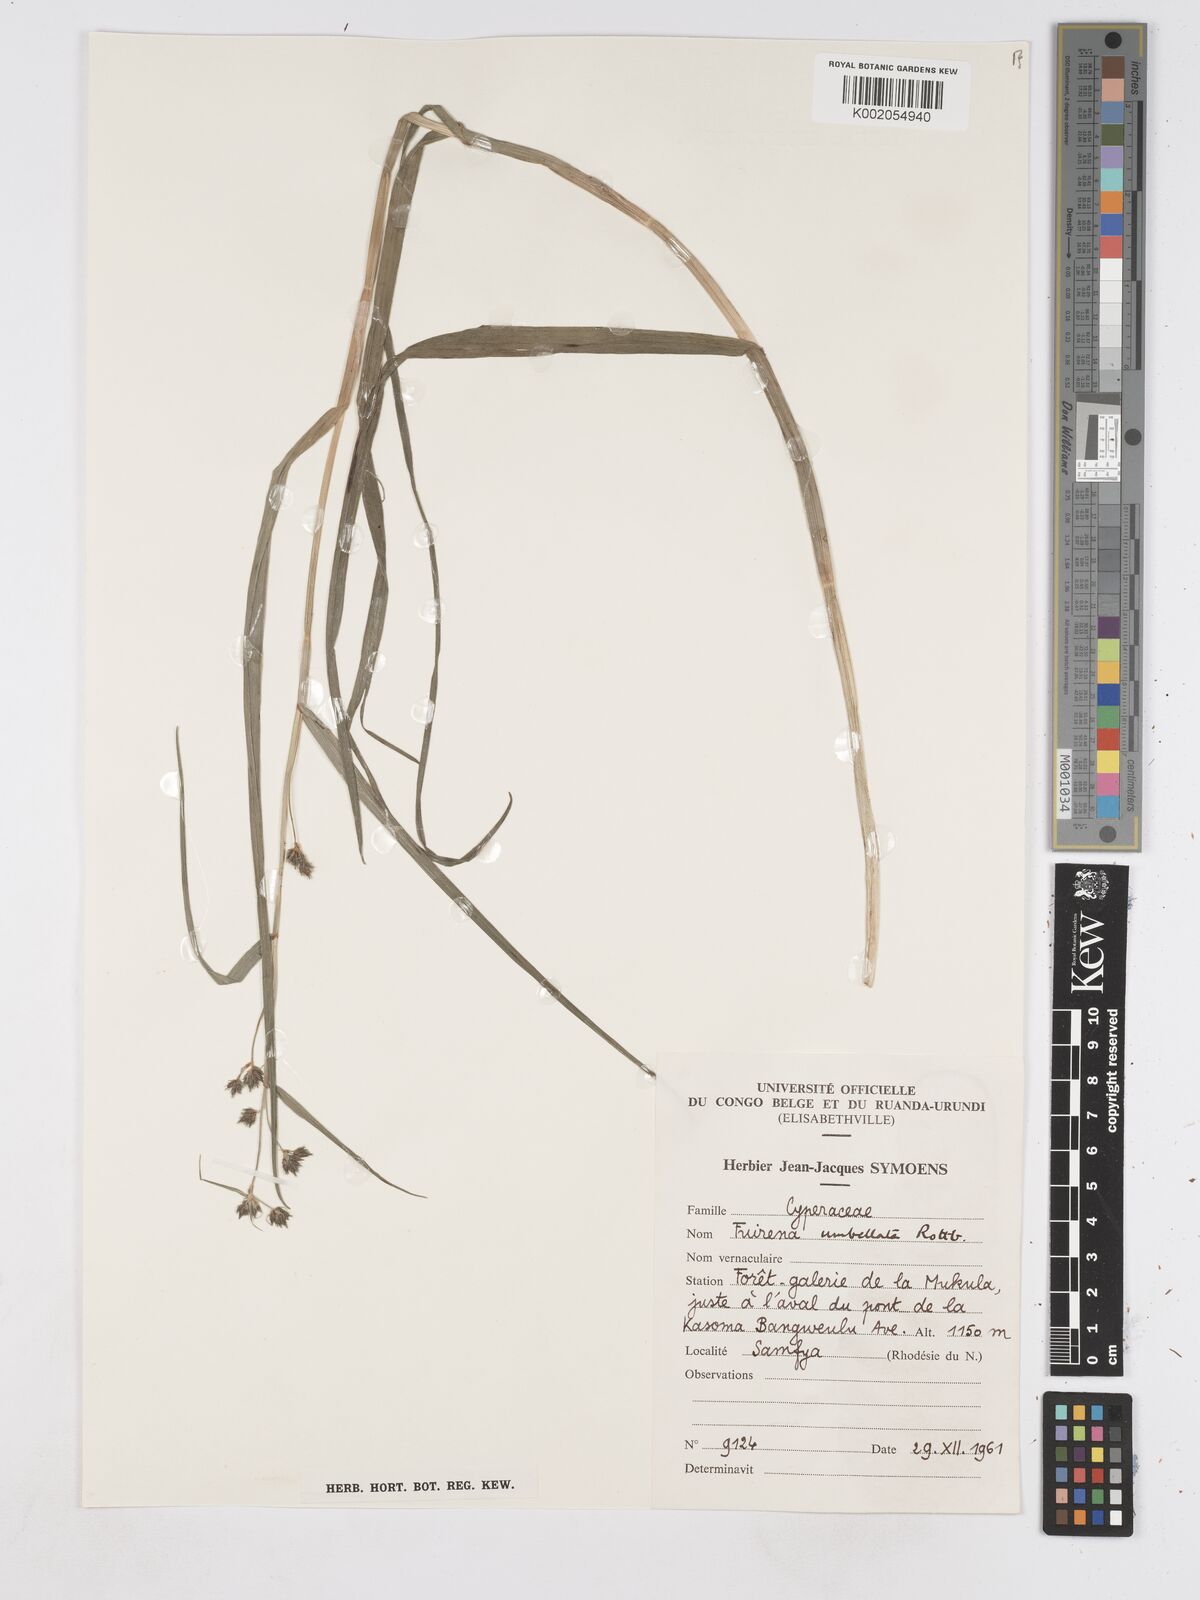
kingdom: Plantae
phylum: Tracheophyta
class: Liliopsida
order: Poales
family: Cyperaceae
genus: Fuirena
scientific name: Fuirena umbellata
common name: Yefen
